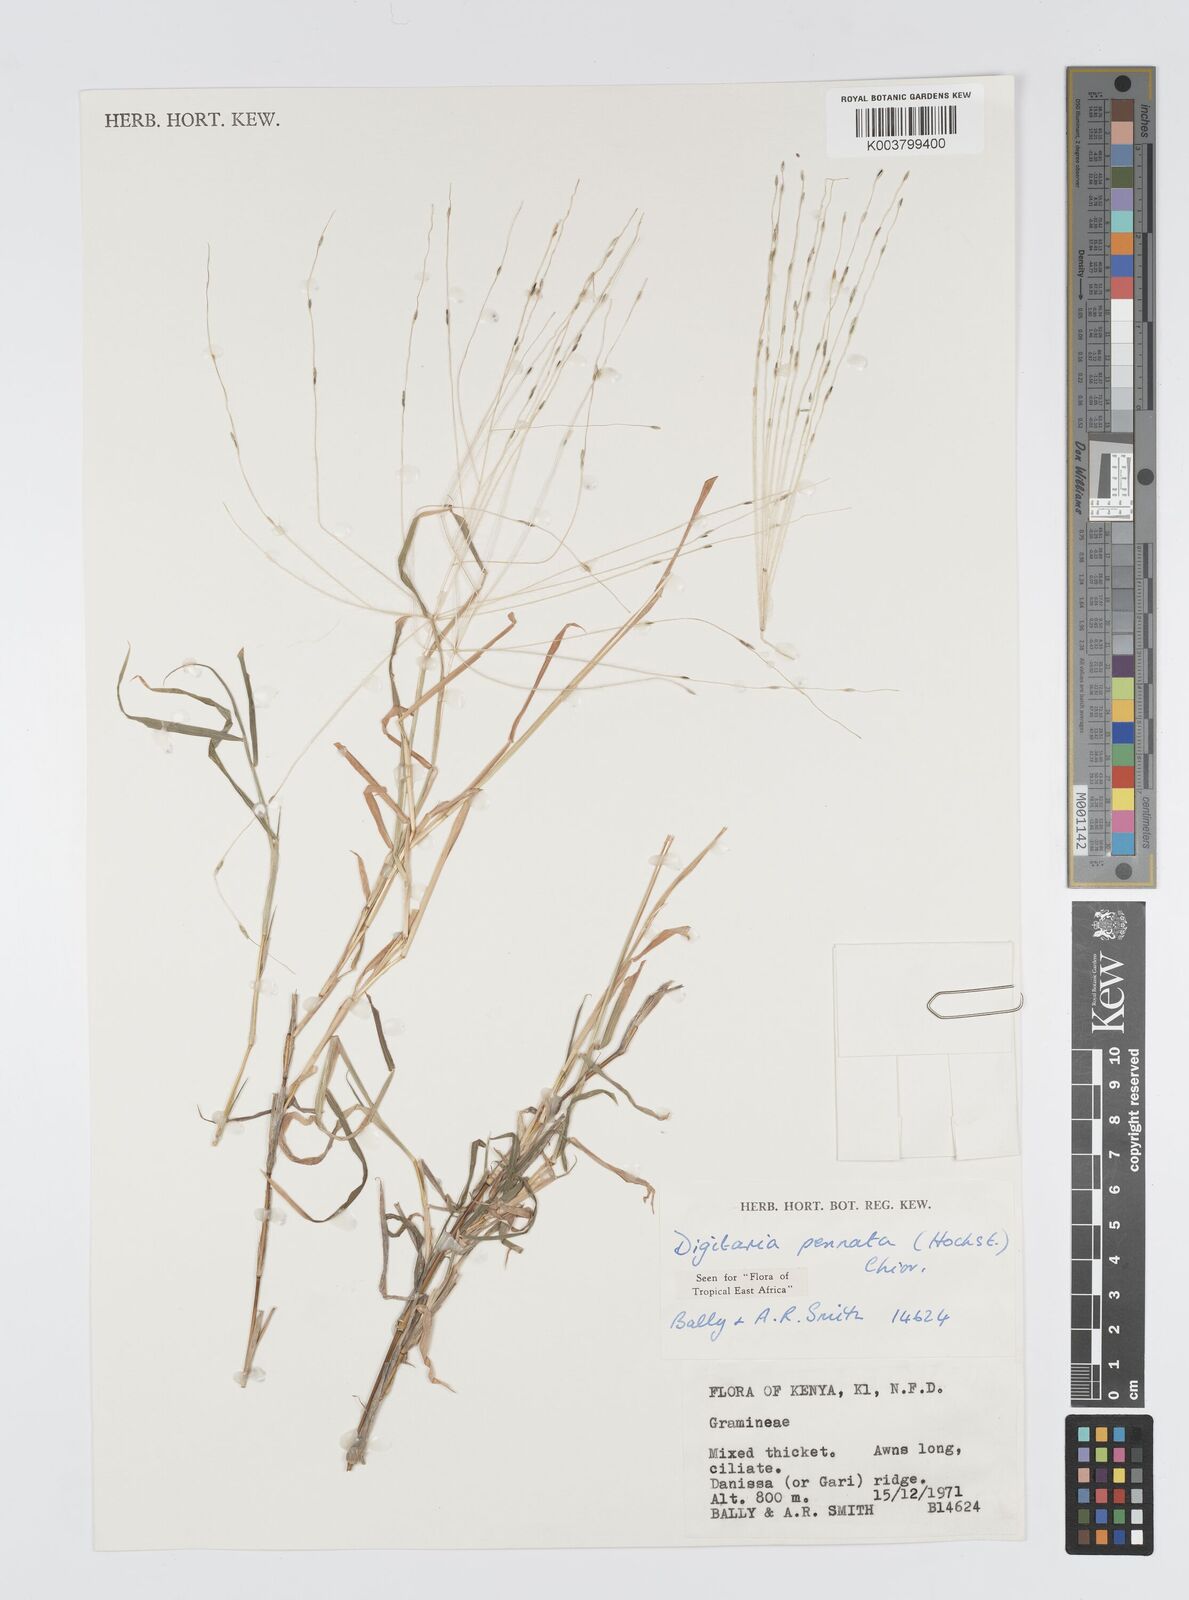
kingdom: Plantae
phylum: Tracheophyta
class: Liliopsida
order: Poales
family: Poaceae
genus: Digitaria
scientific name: Digitaria
